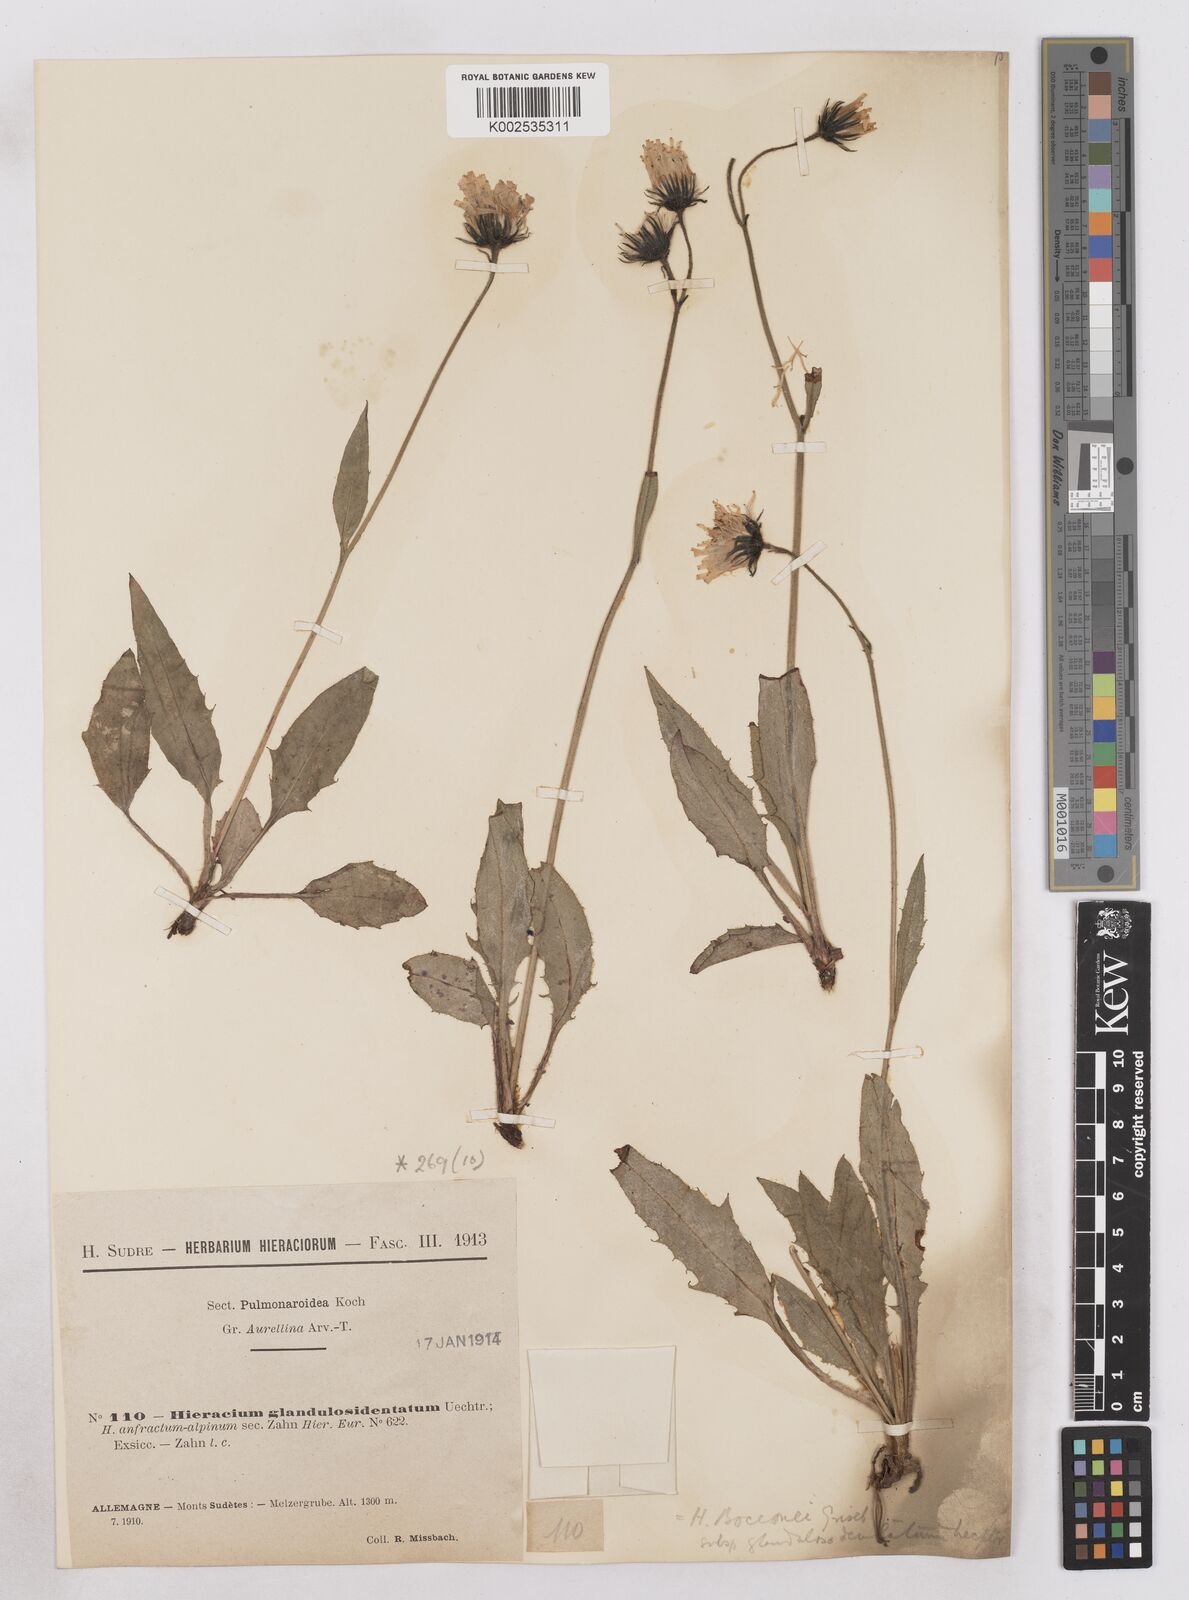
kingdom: Plantae
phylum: Tracheophyta
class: Magnoliopsida
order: Asterales
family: Asteraceae
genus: Hieracium
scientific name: Hieracium bocconei
